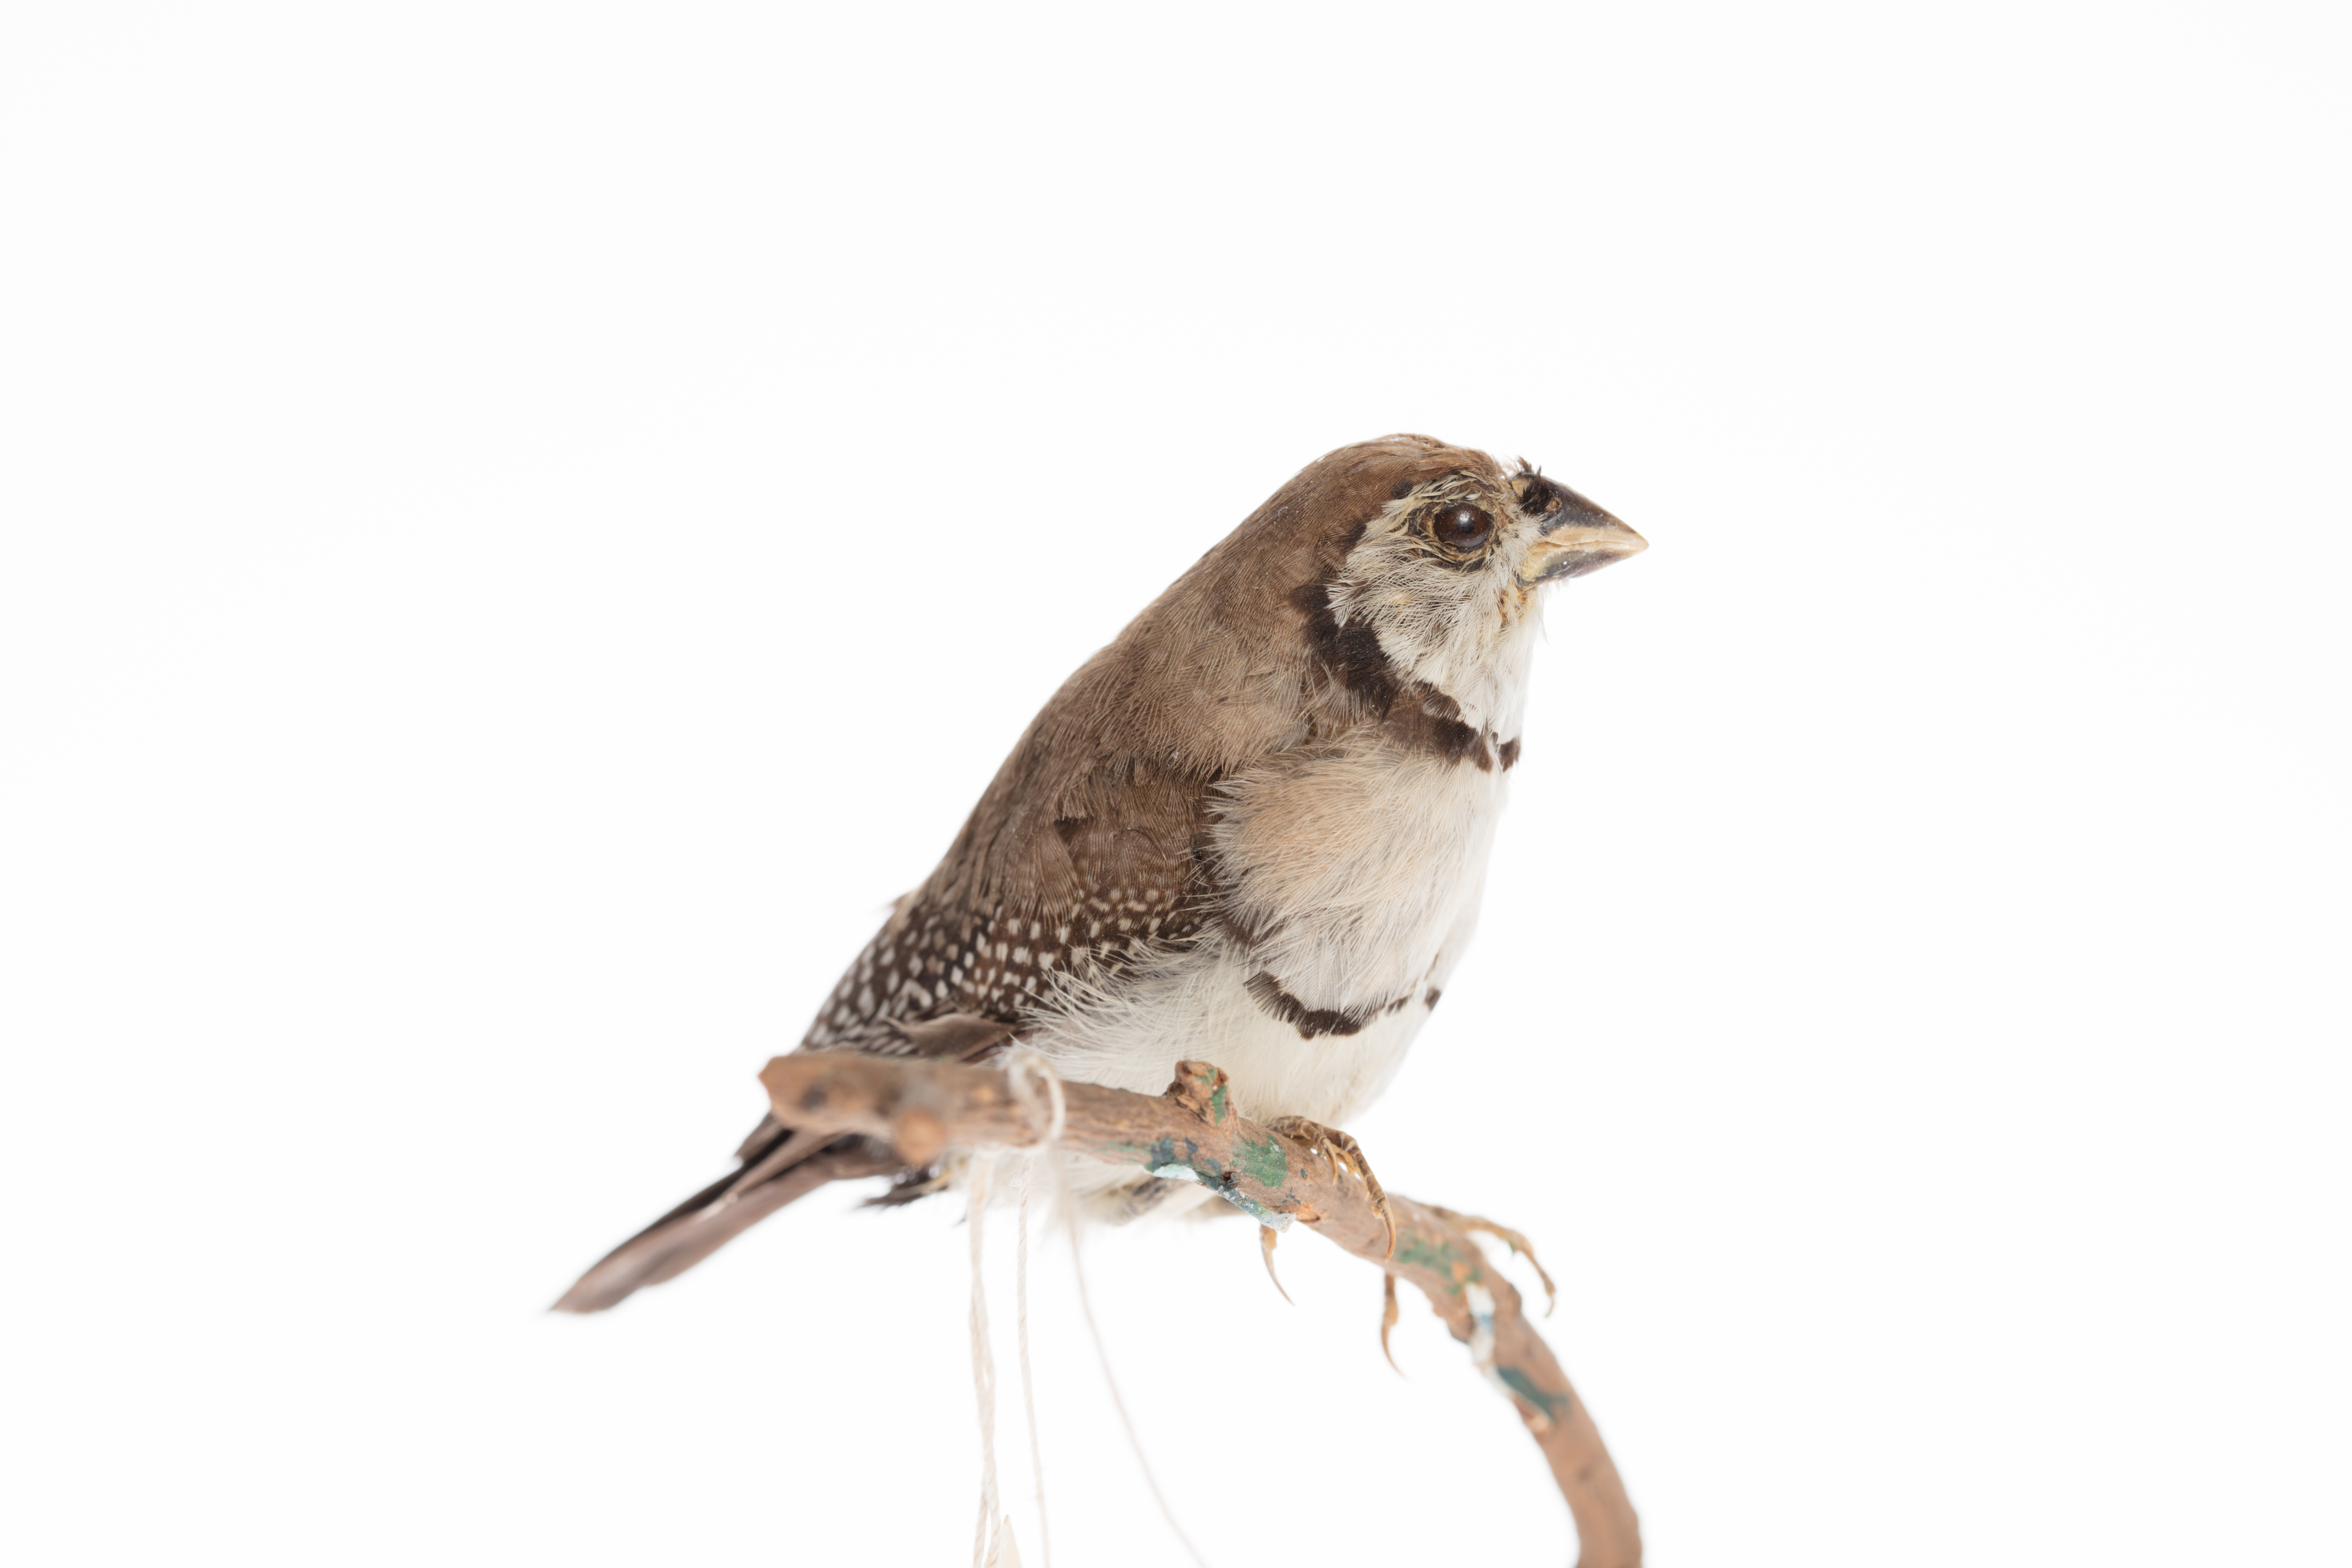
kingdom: Animalia
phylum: Chordata
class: Aves
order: Passeriformes
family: Estrildidae
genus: Poephila
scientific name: Poephila
